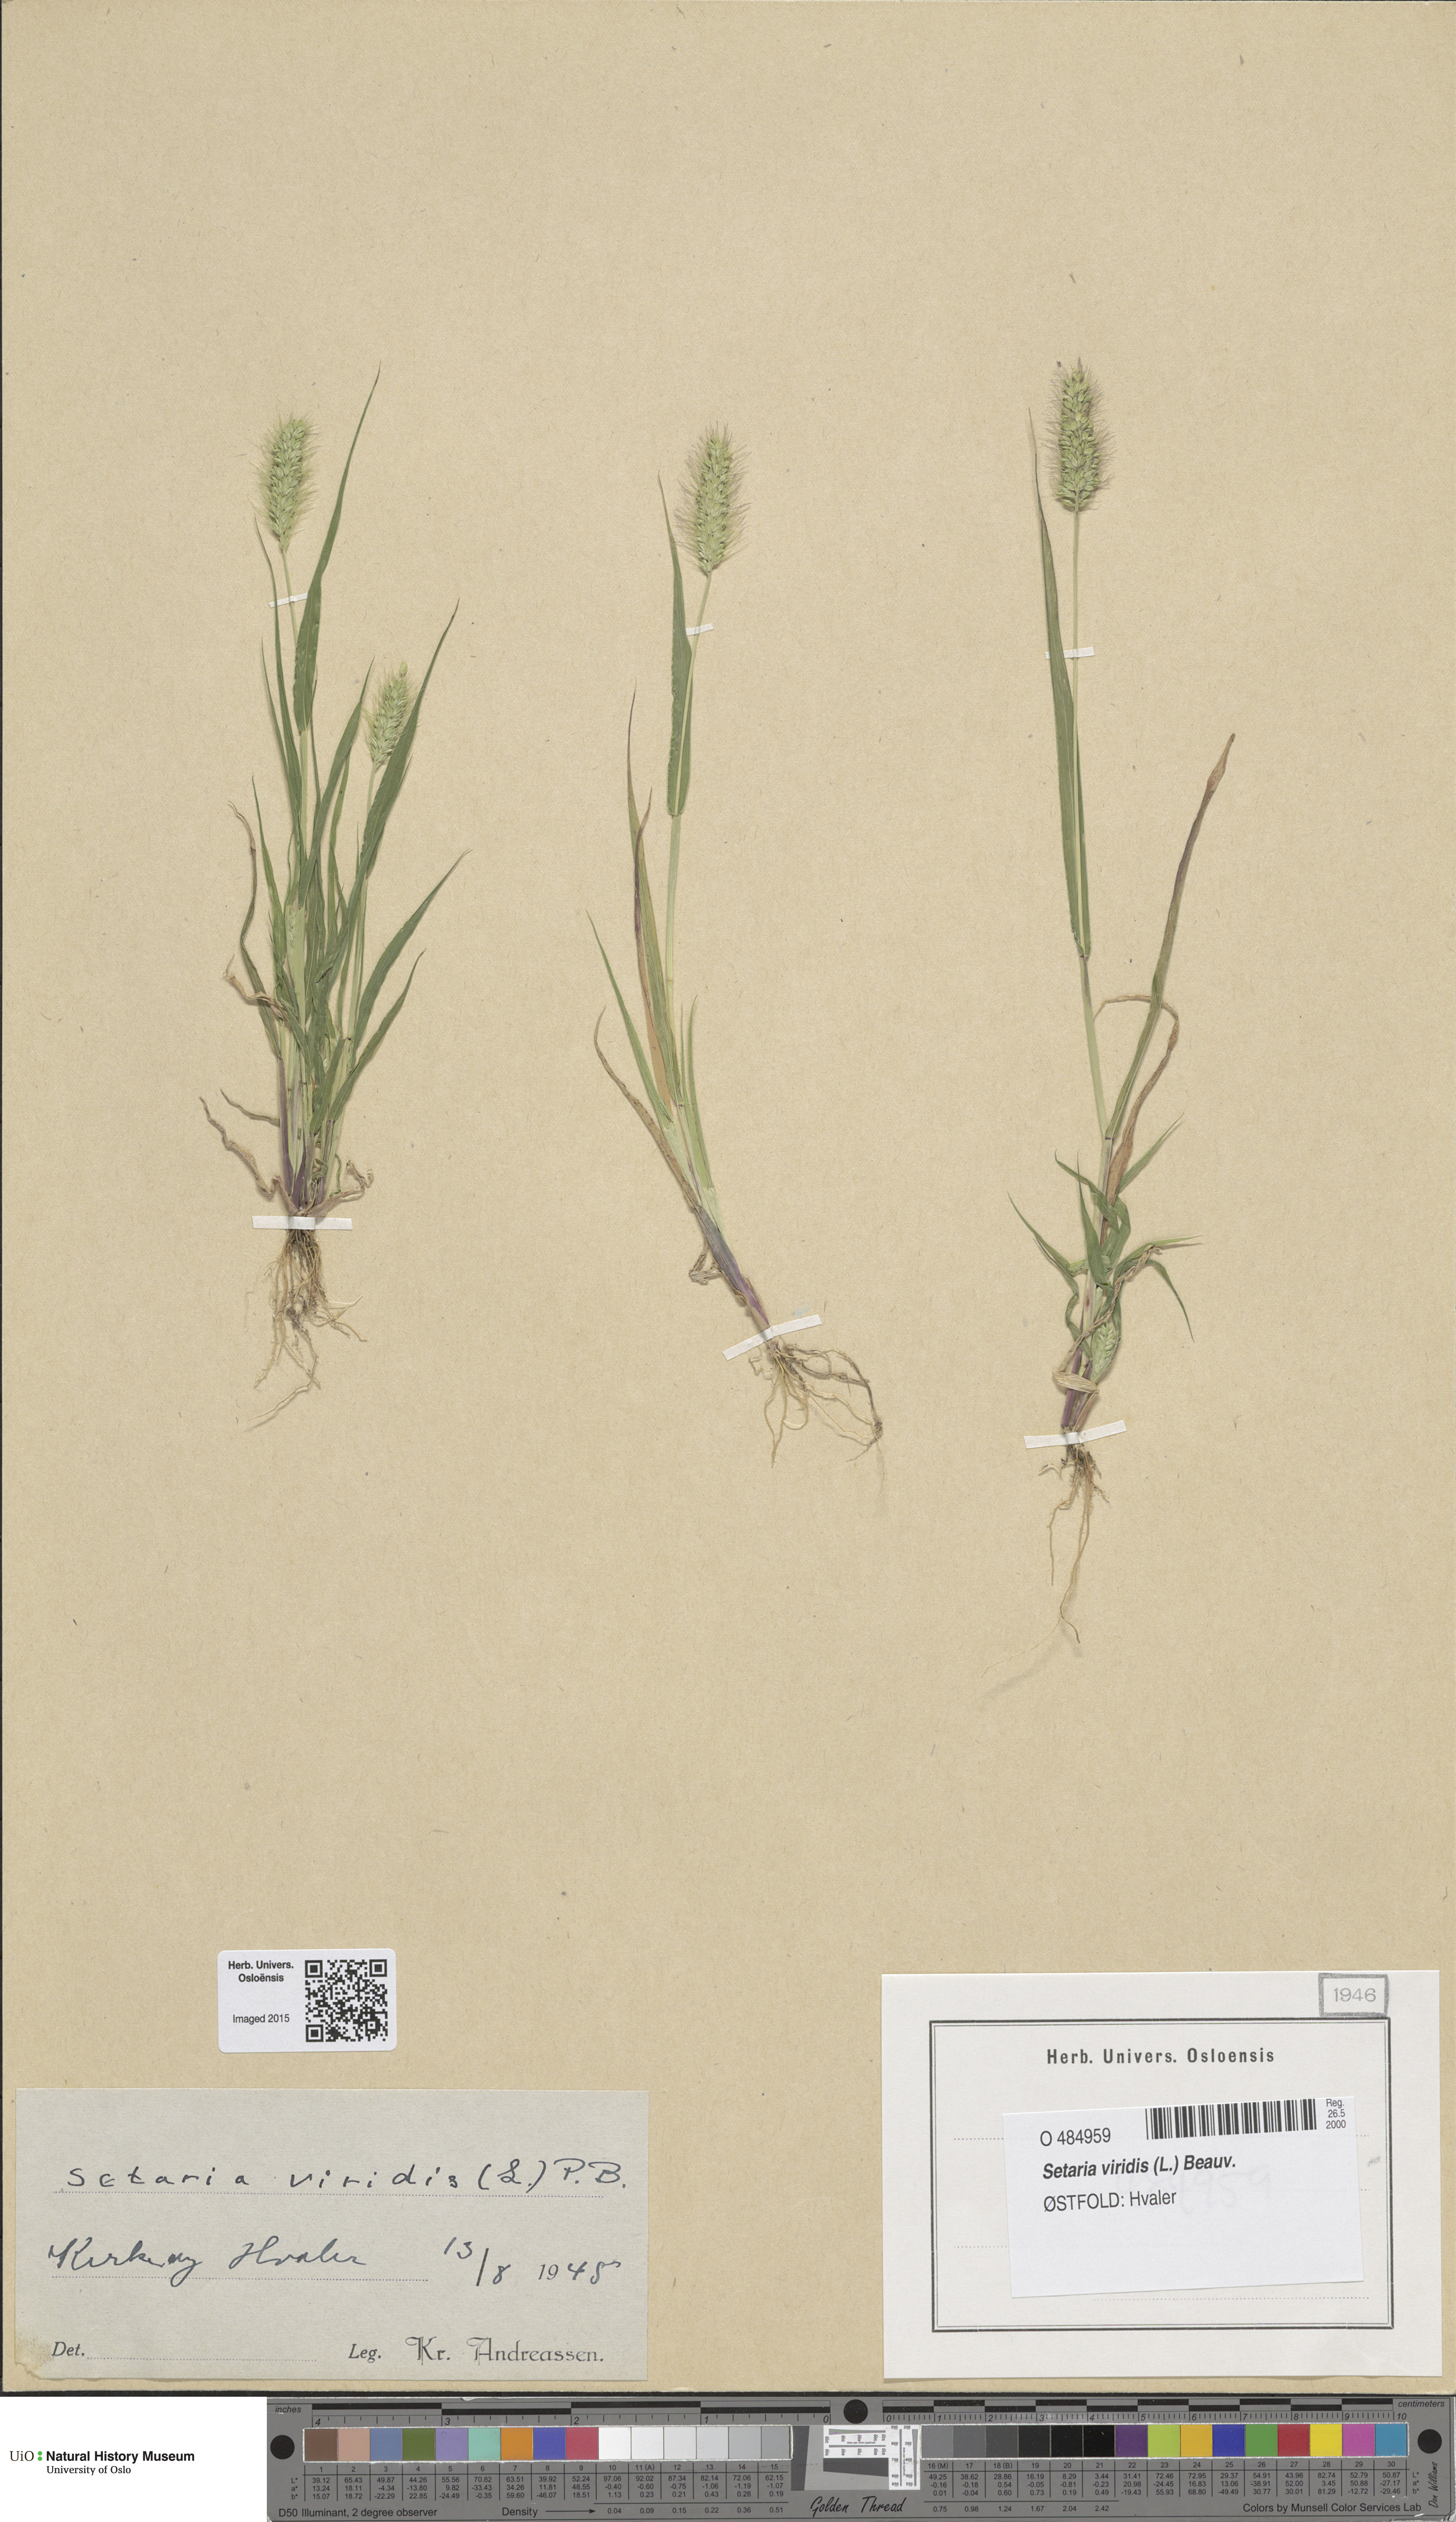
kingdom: Plantae
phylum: Tracheophyta
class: Liliopsida
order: Poales
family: Poaceae
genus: Setaria
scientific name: Setaria viridis
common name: Green bristlegrass
